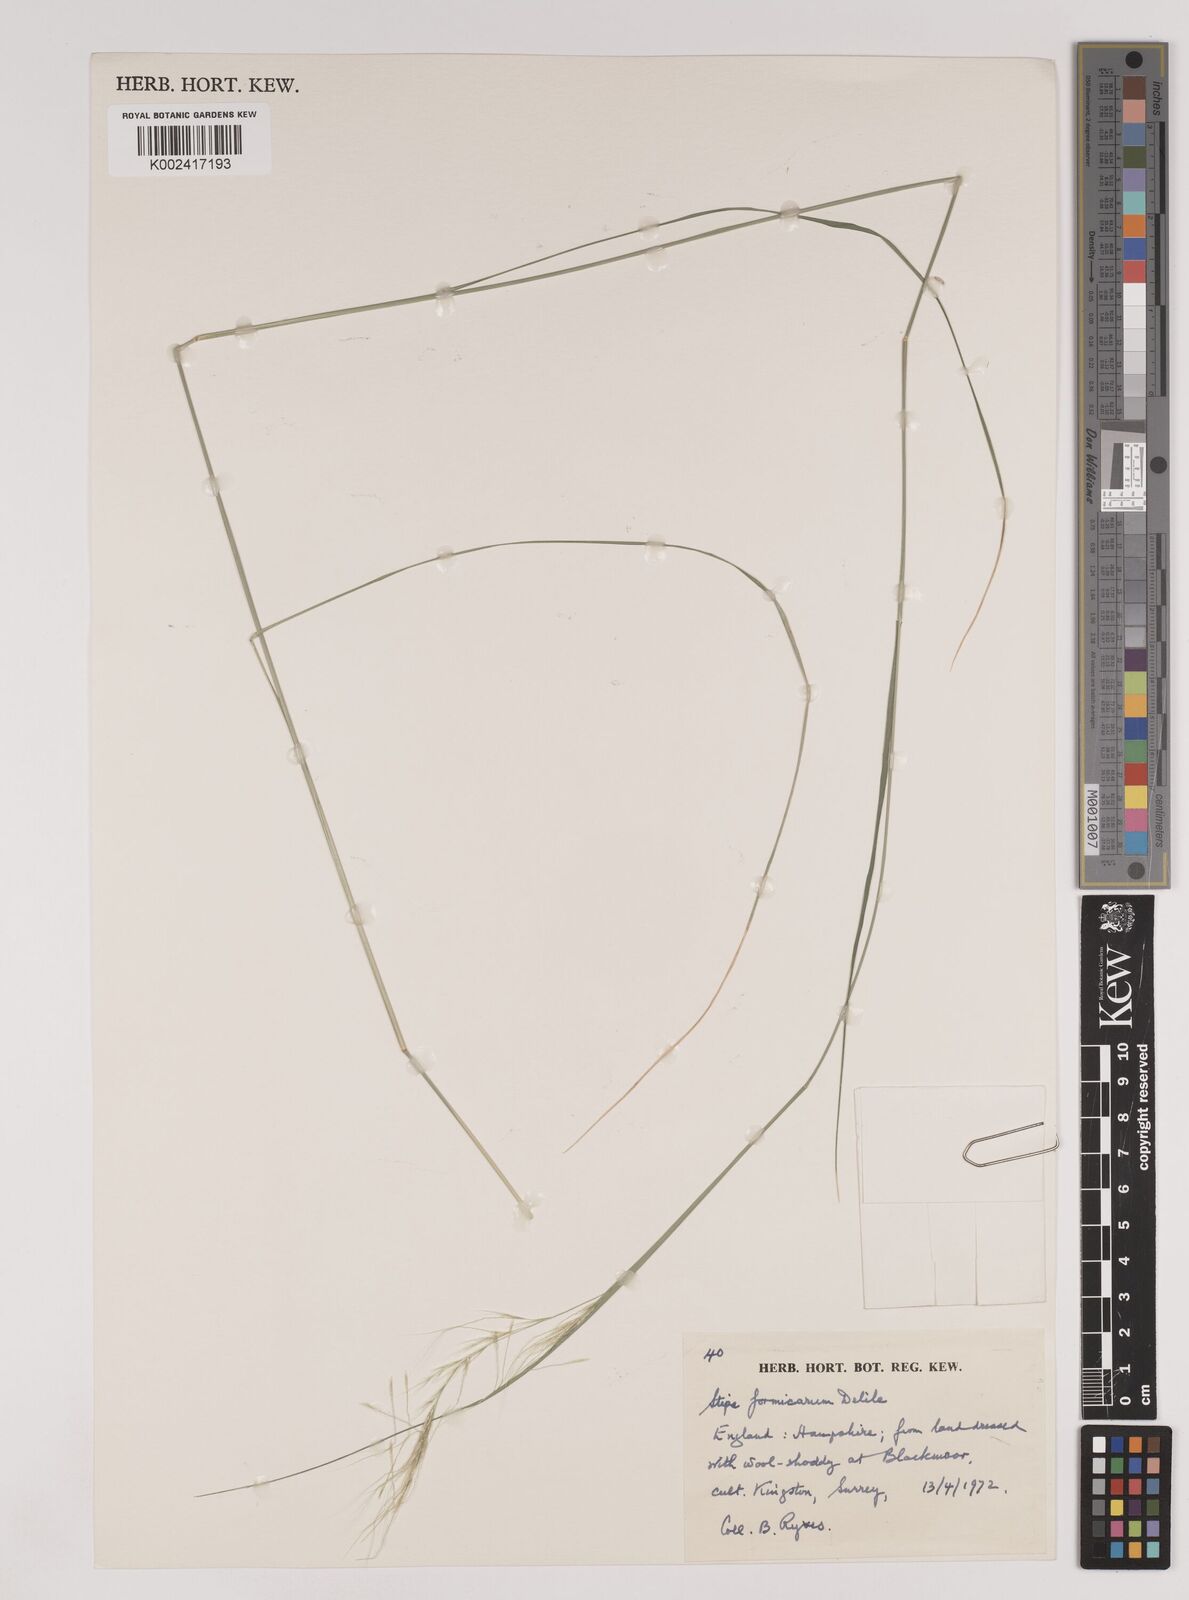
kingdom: Plantae
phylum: Tracheophyta
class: Liliopsida
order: Poales
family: Poaceae
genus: Nassella
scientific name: Nassella formicarum
